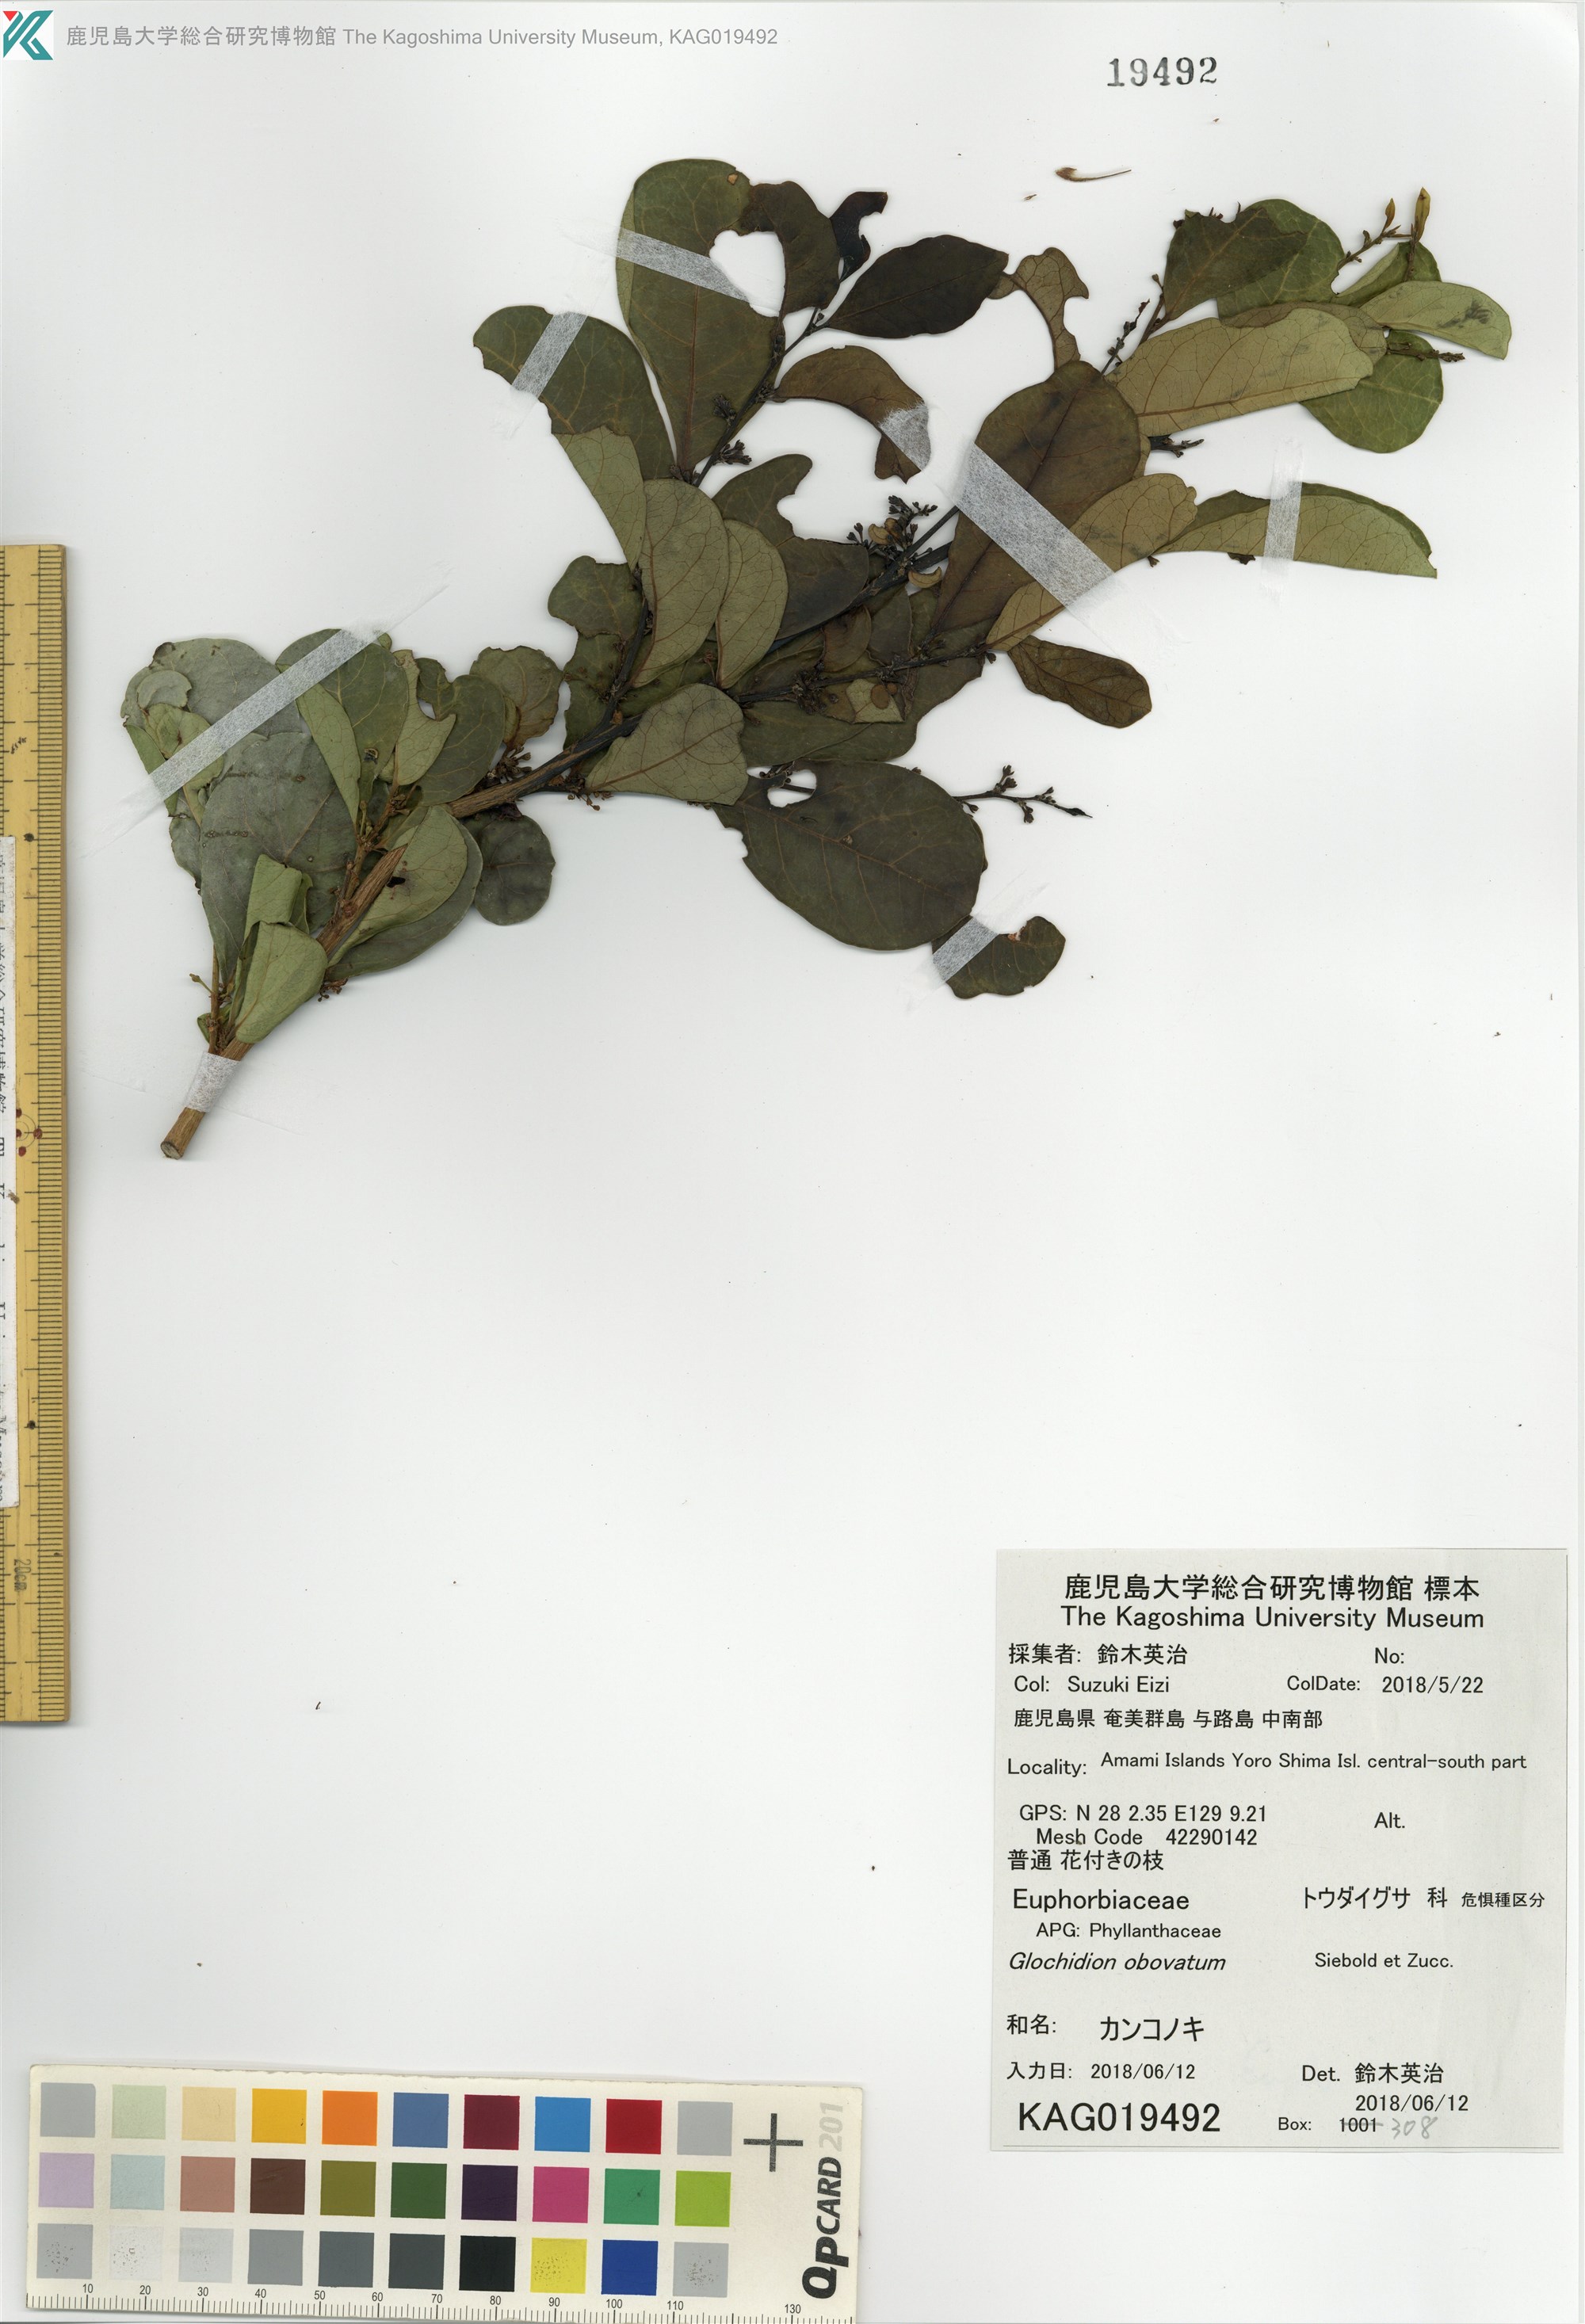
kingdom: Plantae
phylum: Tracheophyta
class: Magnoliopsida
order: Malpighiales
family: Phyllanthaceae
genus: Glochidion
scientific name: Glochidion obovatum
